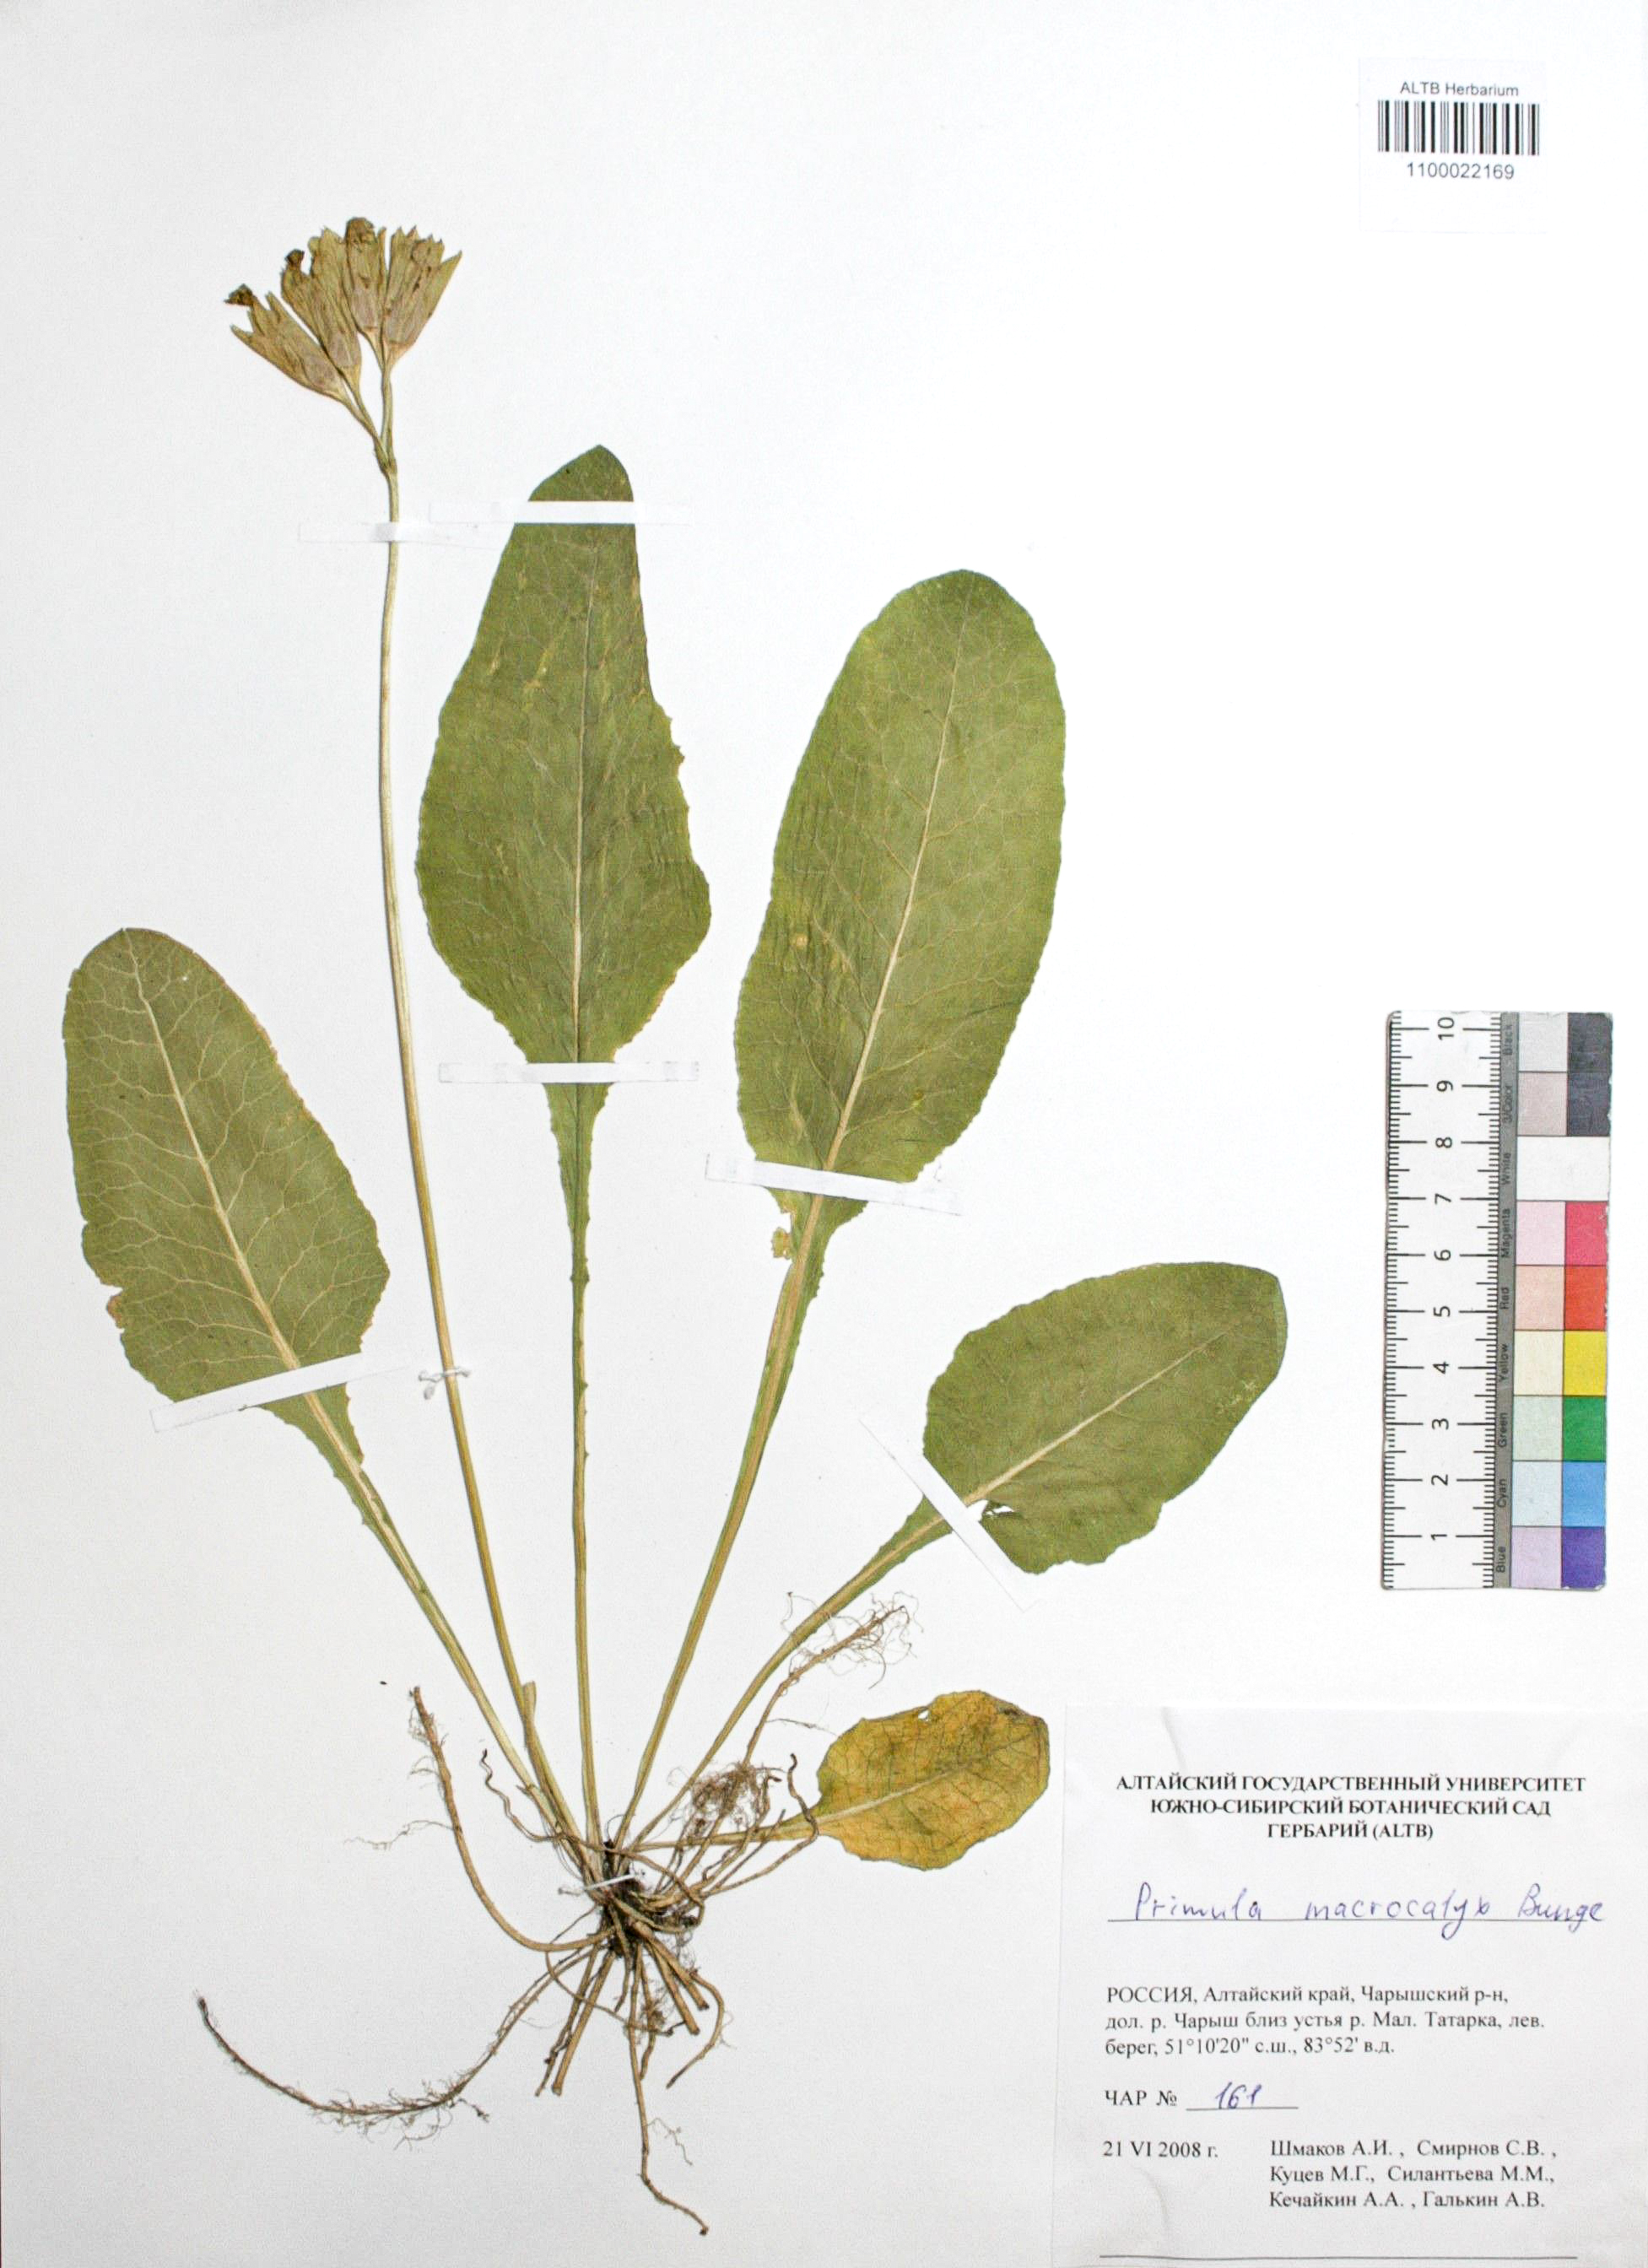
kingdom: Plantae
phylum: Tracheophyta
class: Magnoliopsida
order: Ericales
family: Primulaceae
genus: Primula
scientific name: Primula veris
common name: Cowslip
